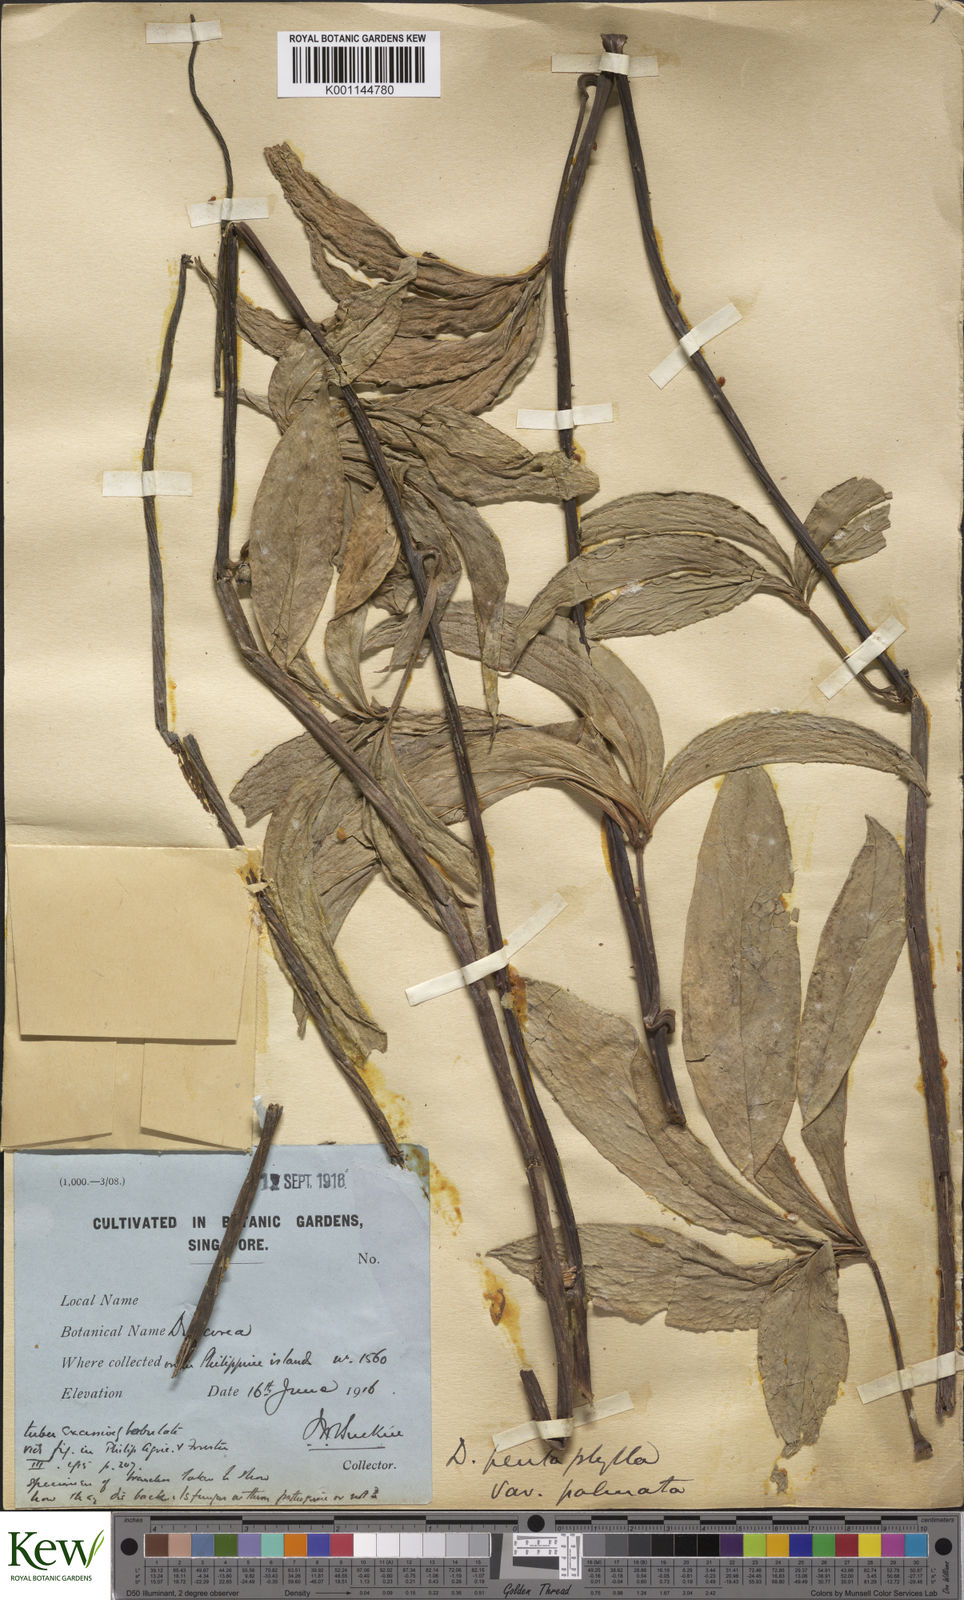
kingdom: Plantae
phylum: Tracheophyta
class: Liliopsida
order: Dioscoreales
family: Dioscoreaceae
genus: Dioscorea
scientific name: Dioscorea pentaphylla
